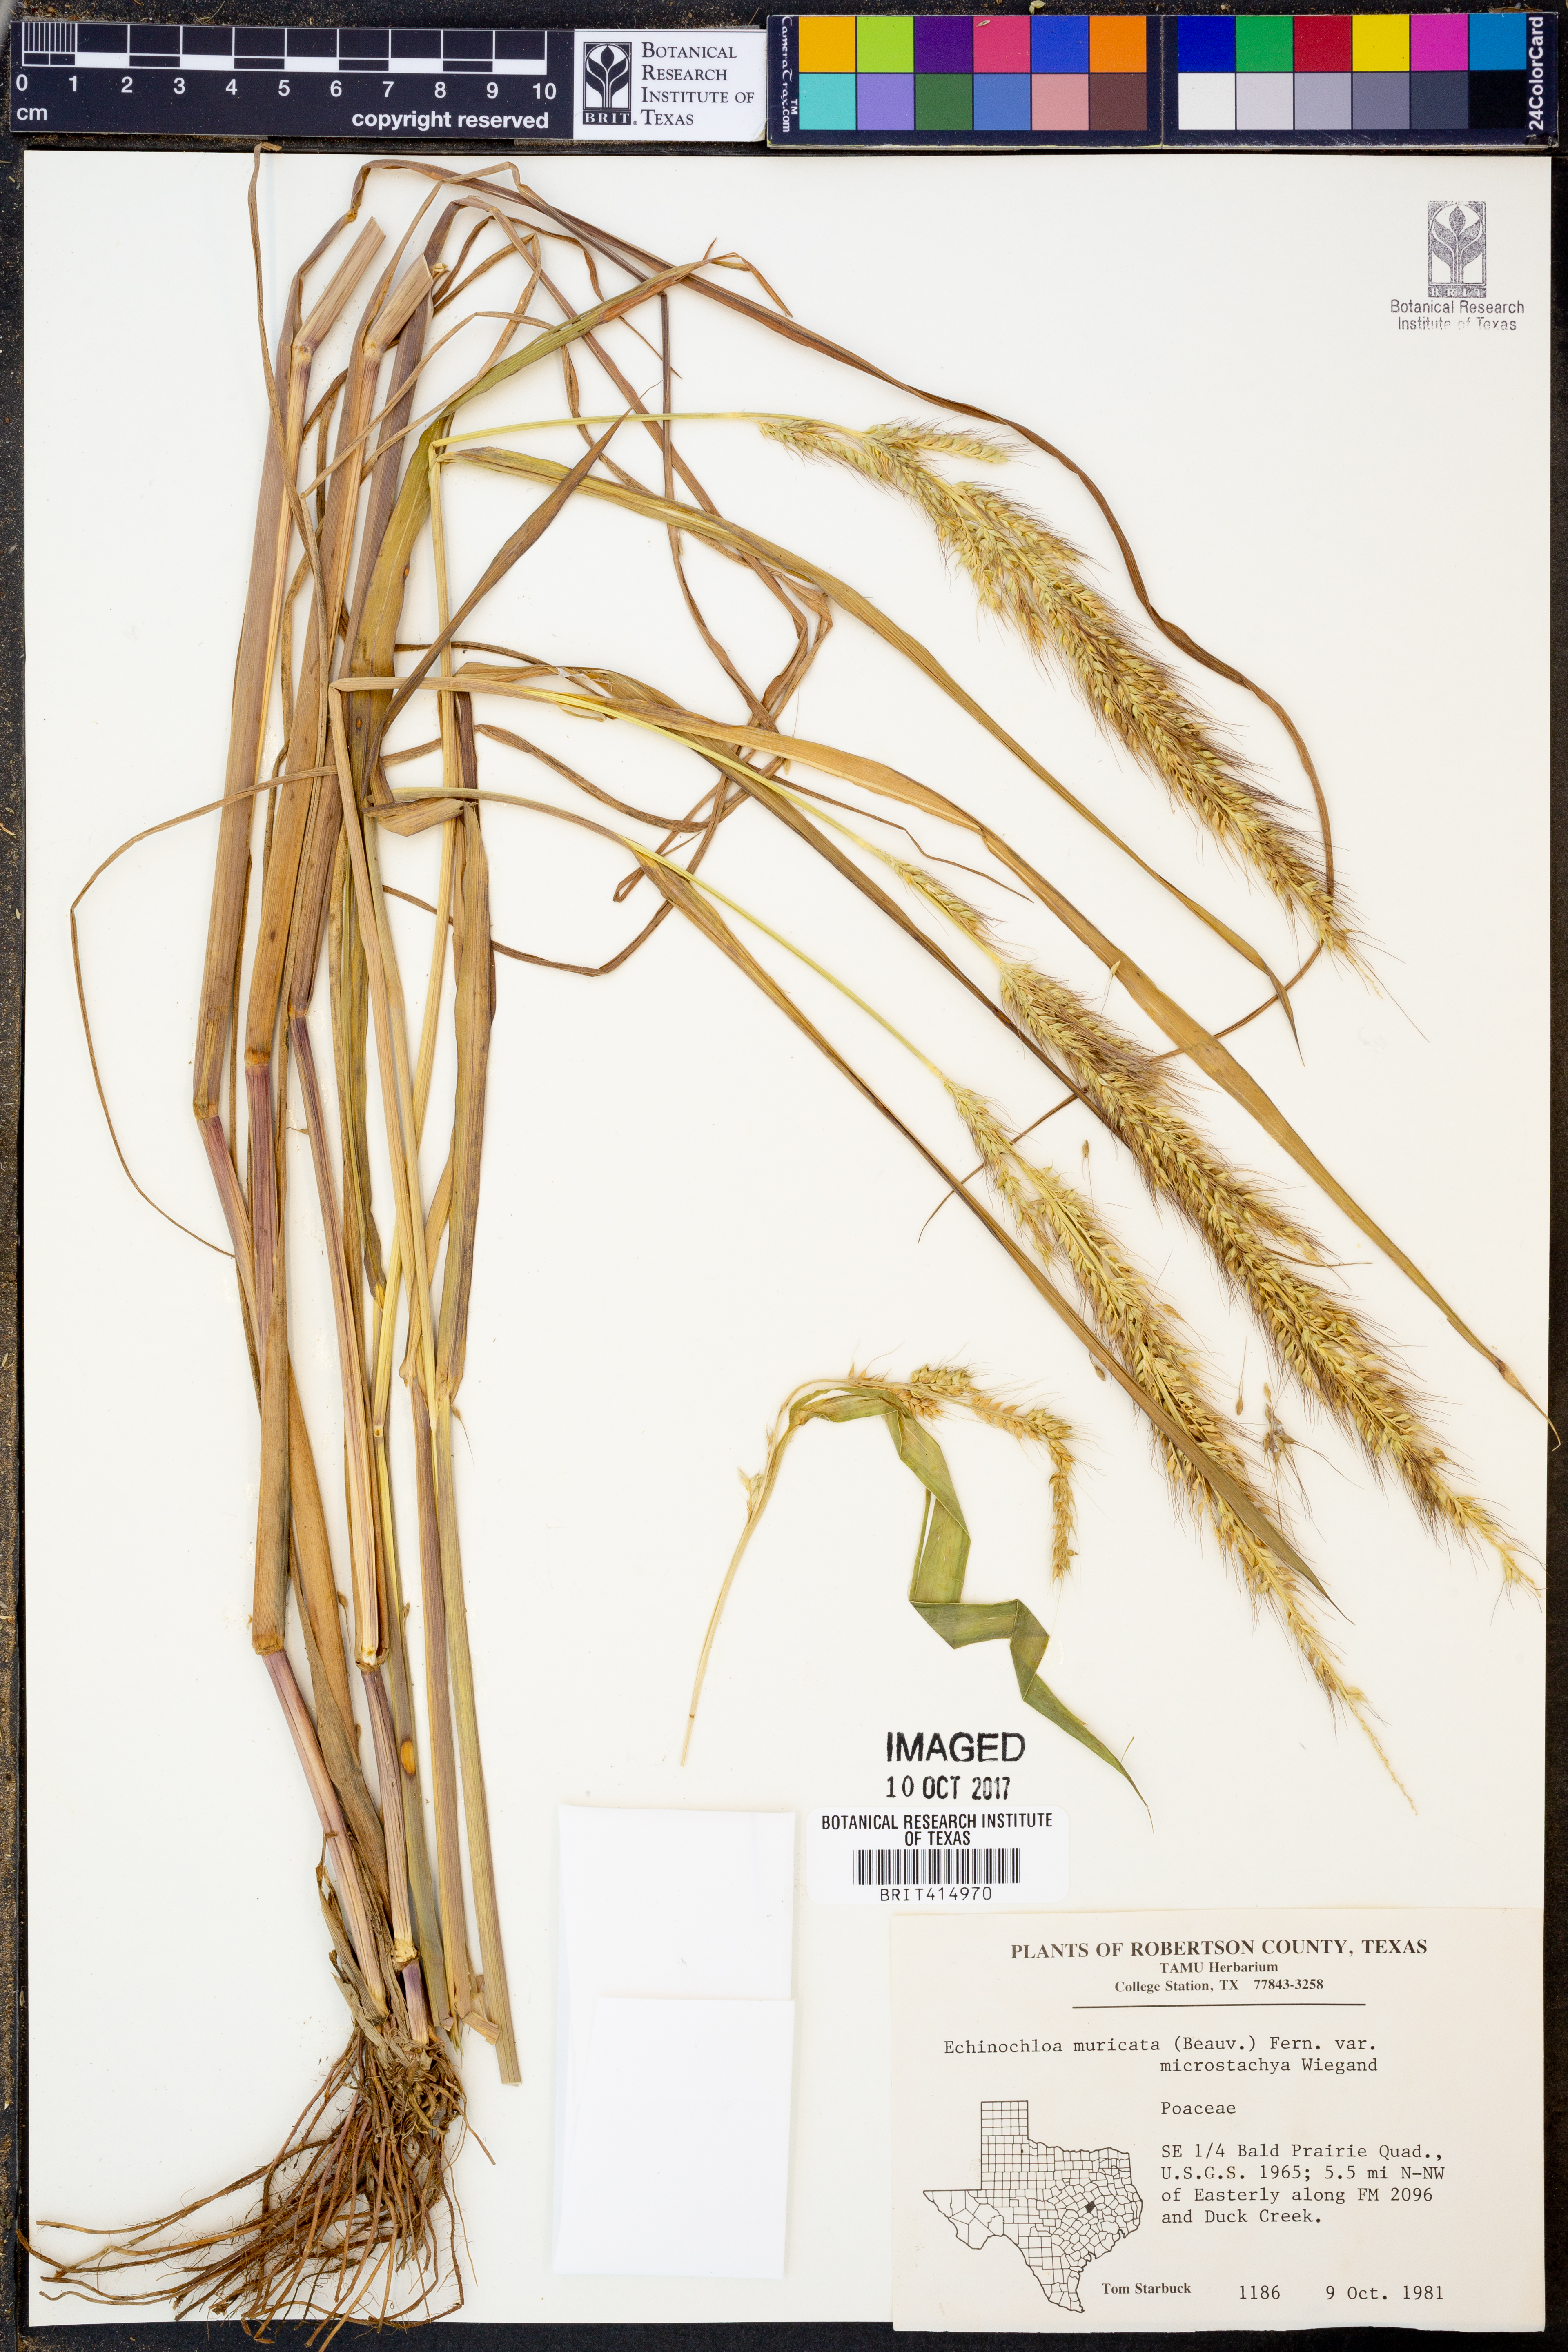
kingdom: Plantae
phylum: Tracheophyta
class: Liliopsida
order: Poales
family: Poaceae
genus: Echinochloa
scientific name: Echinochloa muricata
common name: American barnyard grass
